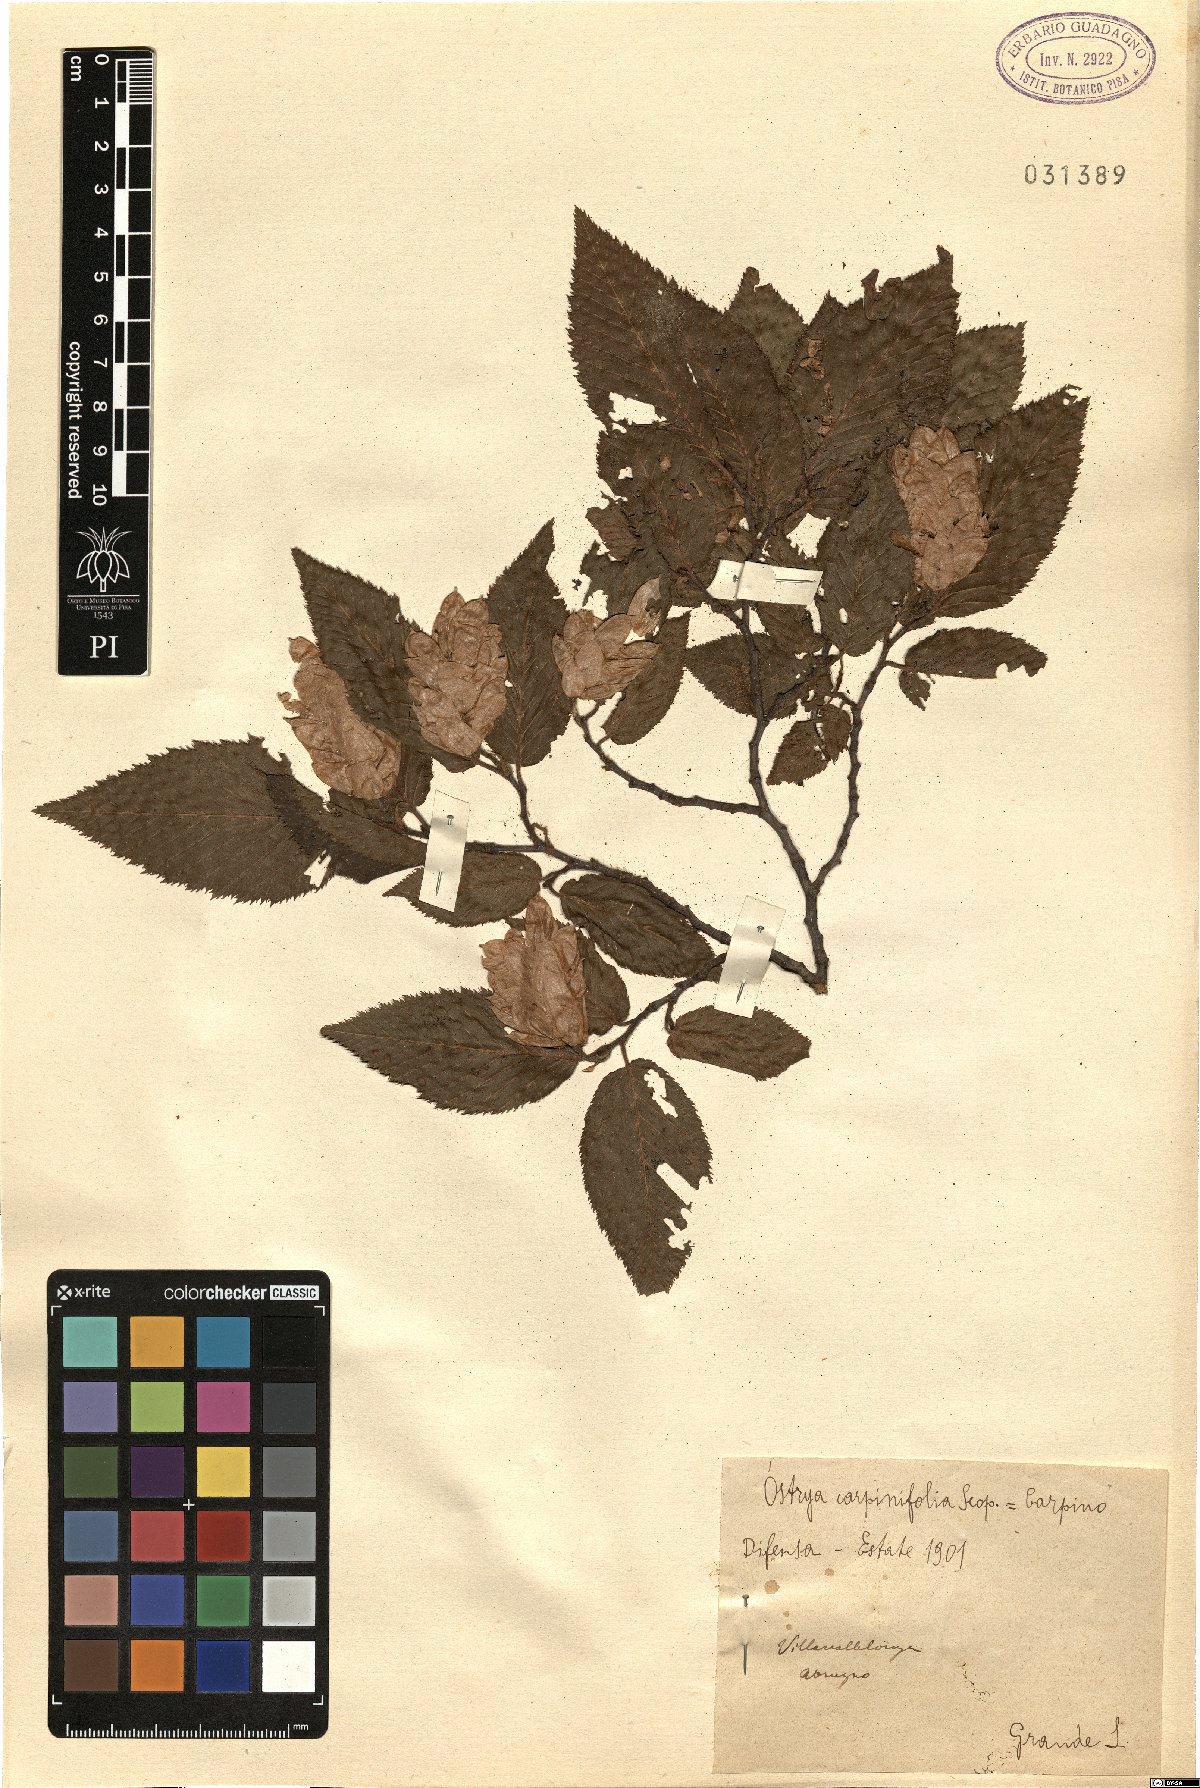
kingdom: Plantae
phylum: Tracheophyta
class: Magnoliopsida
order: Fagales
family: Betulaceae
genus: Ostrya
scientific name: Ostrya carpinifolia
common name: European hop-hornbeam
